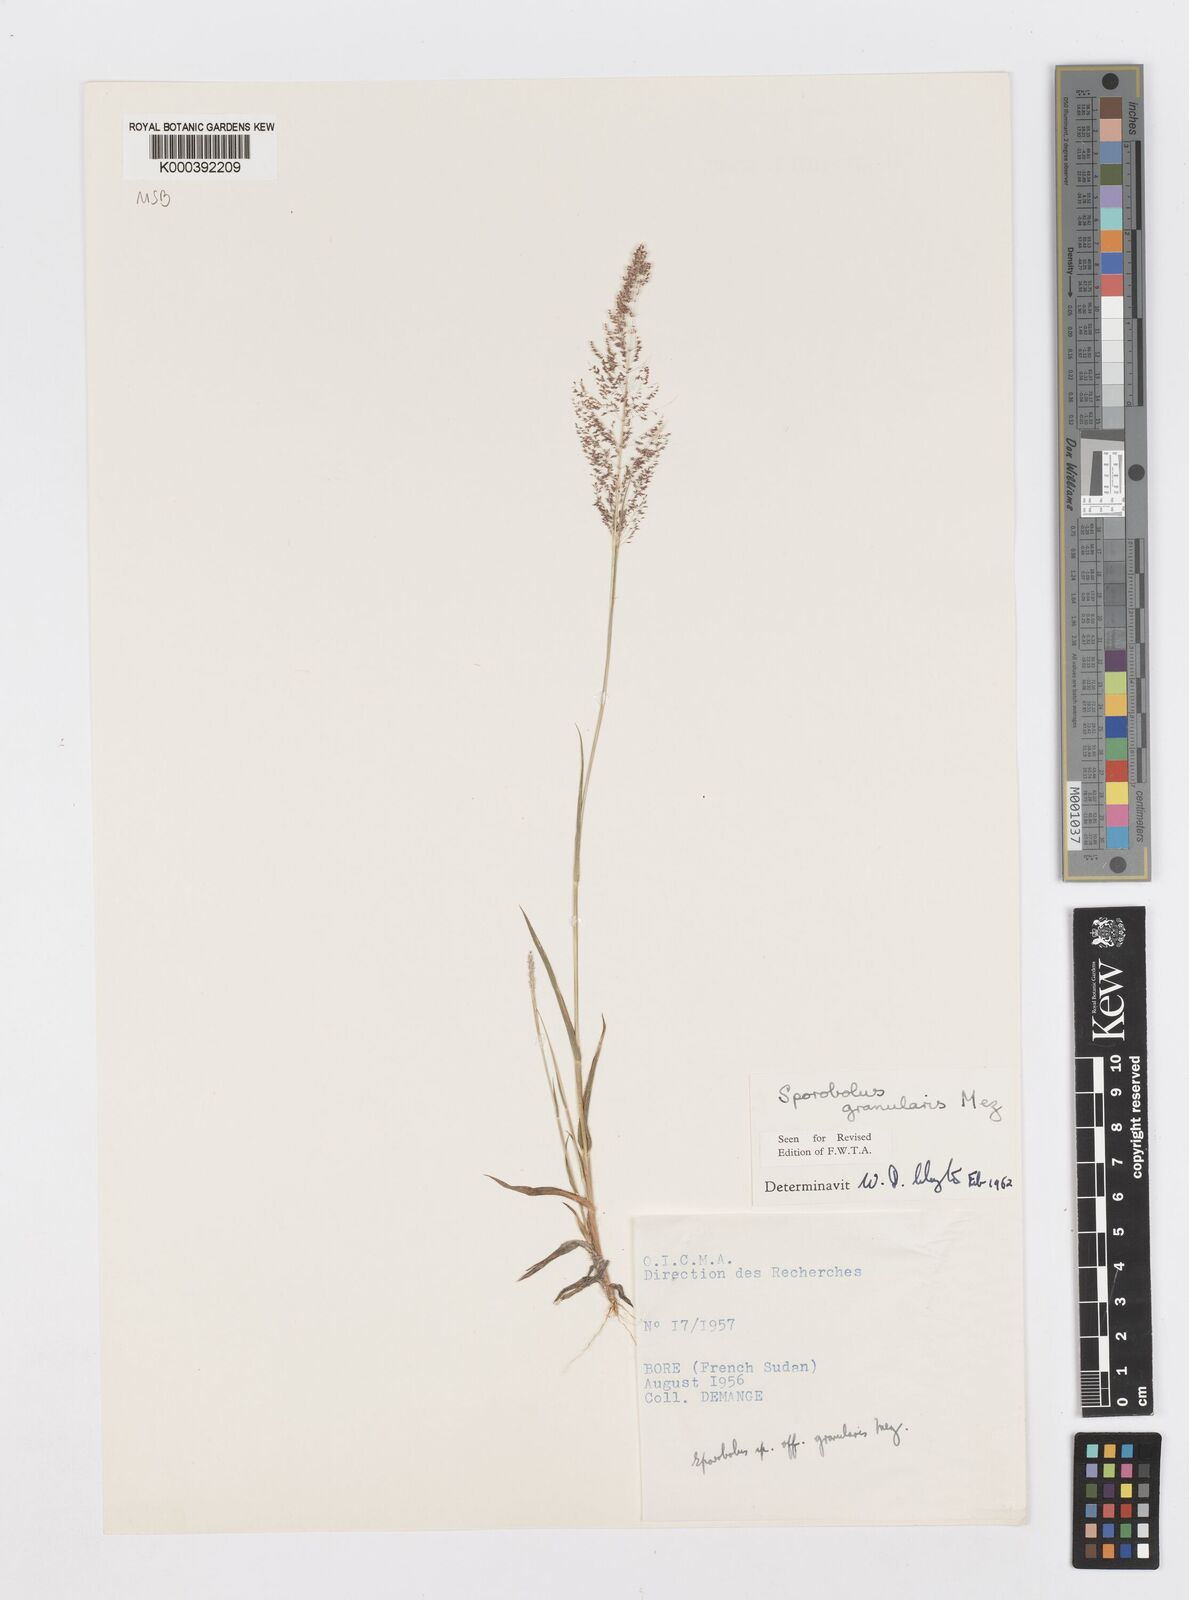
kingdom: Plantae
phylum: Tracheophyta
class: Liliopsida
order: Poales
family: Poaceae
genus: Sporobolus
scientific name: Sporobolus stolzii
